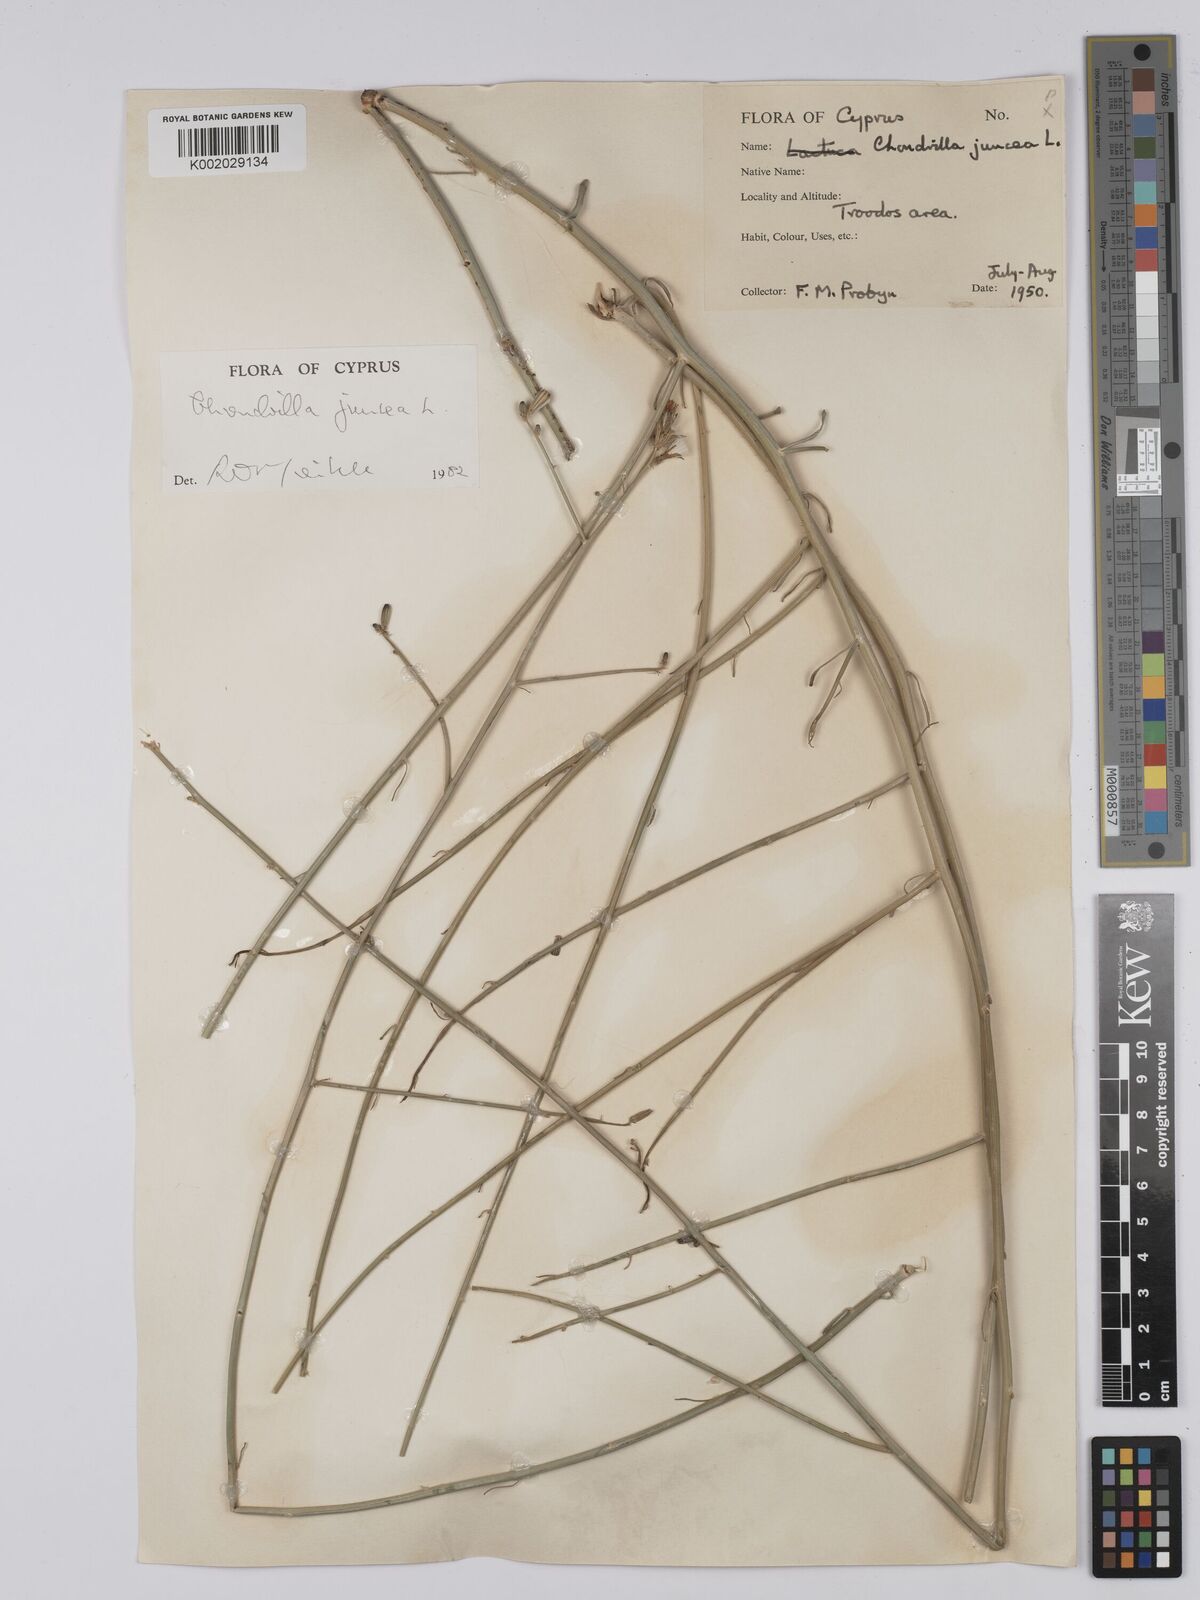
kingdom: Plantae
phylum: Tracheophyta
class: Magnoliopsida
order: Asterales
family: Asteraceae
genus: Chondrilla
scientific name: Chondrilla juncea
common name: Skeleton weed
